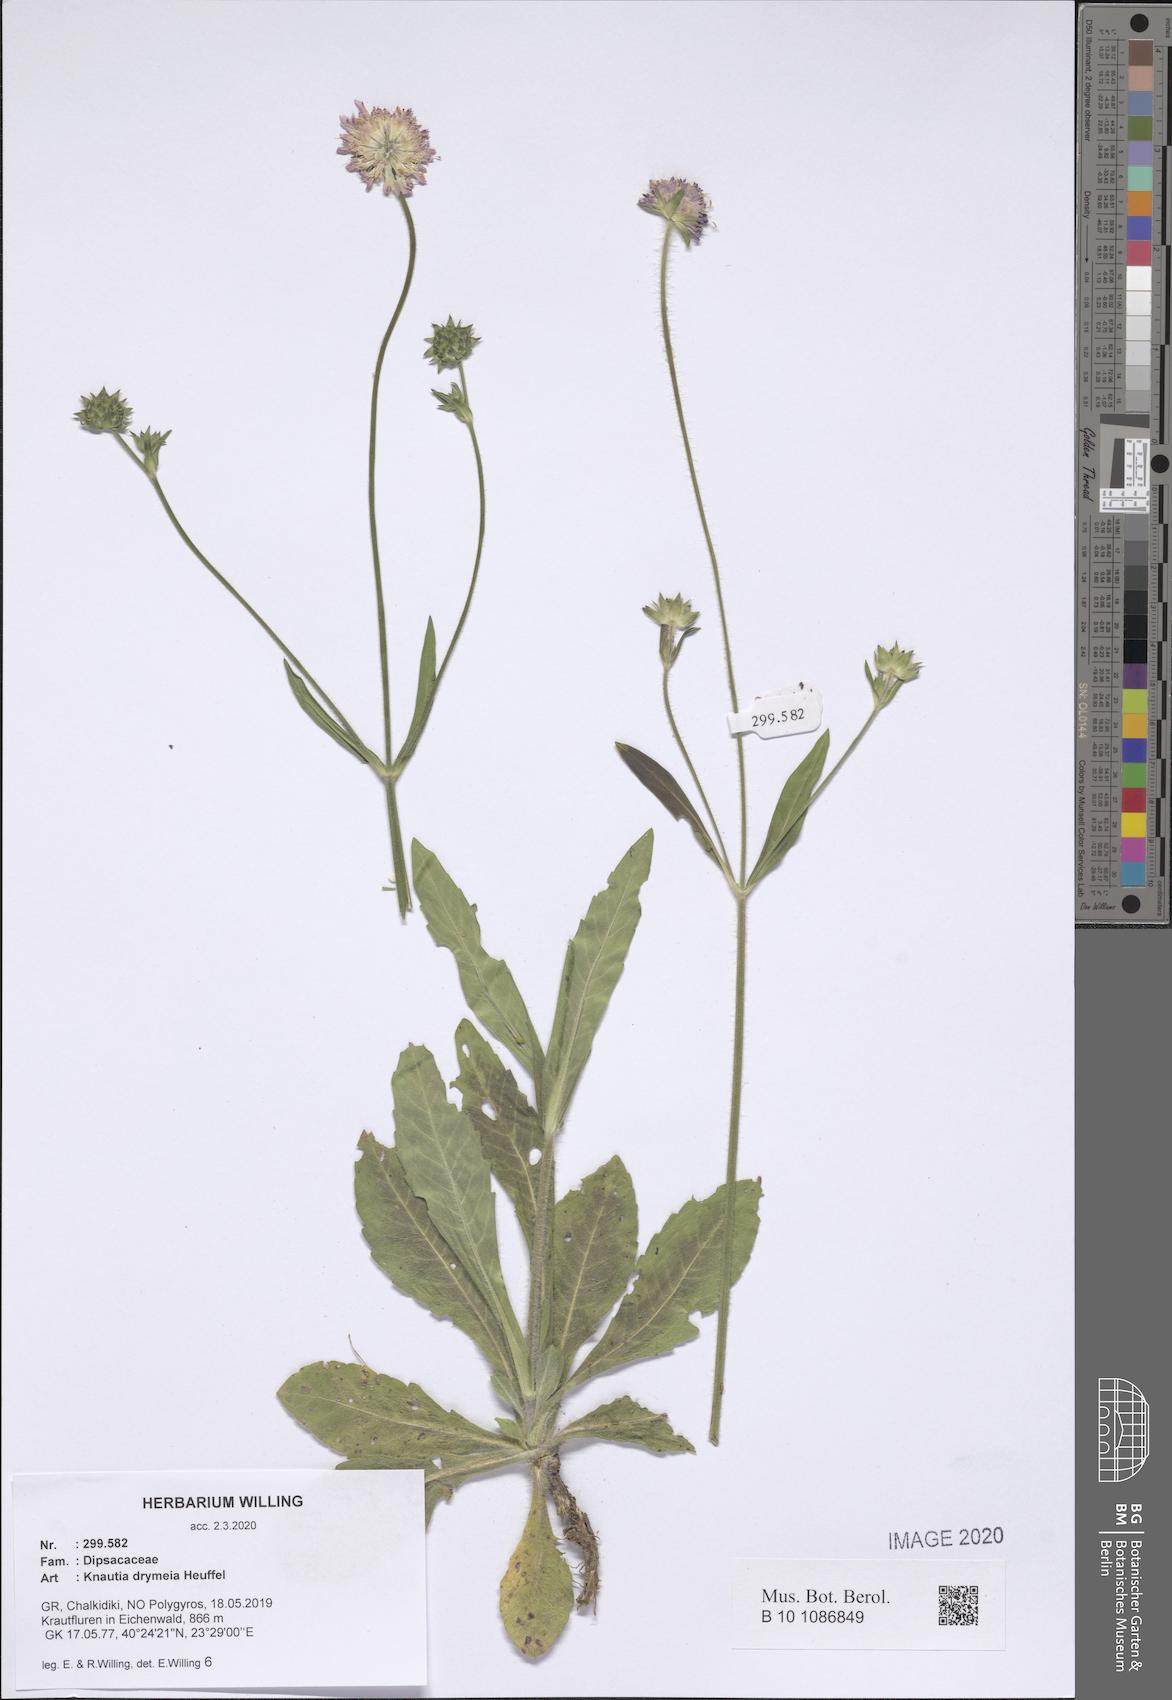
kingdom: Plantae
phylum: Tracheophyta
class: Magnoliopsida
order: Dipsacales
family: Caprifoliaceae
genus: Knautia
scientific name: Knautia drymeia
